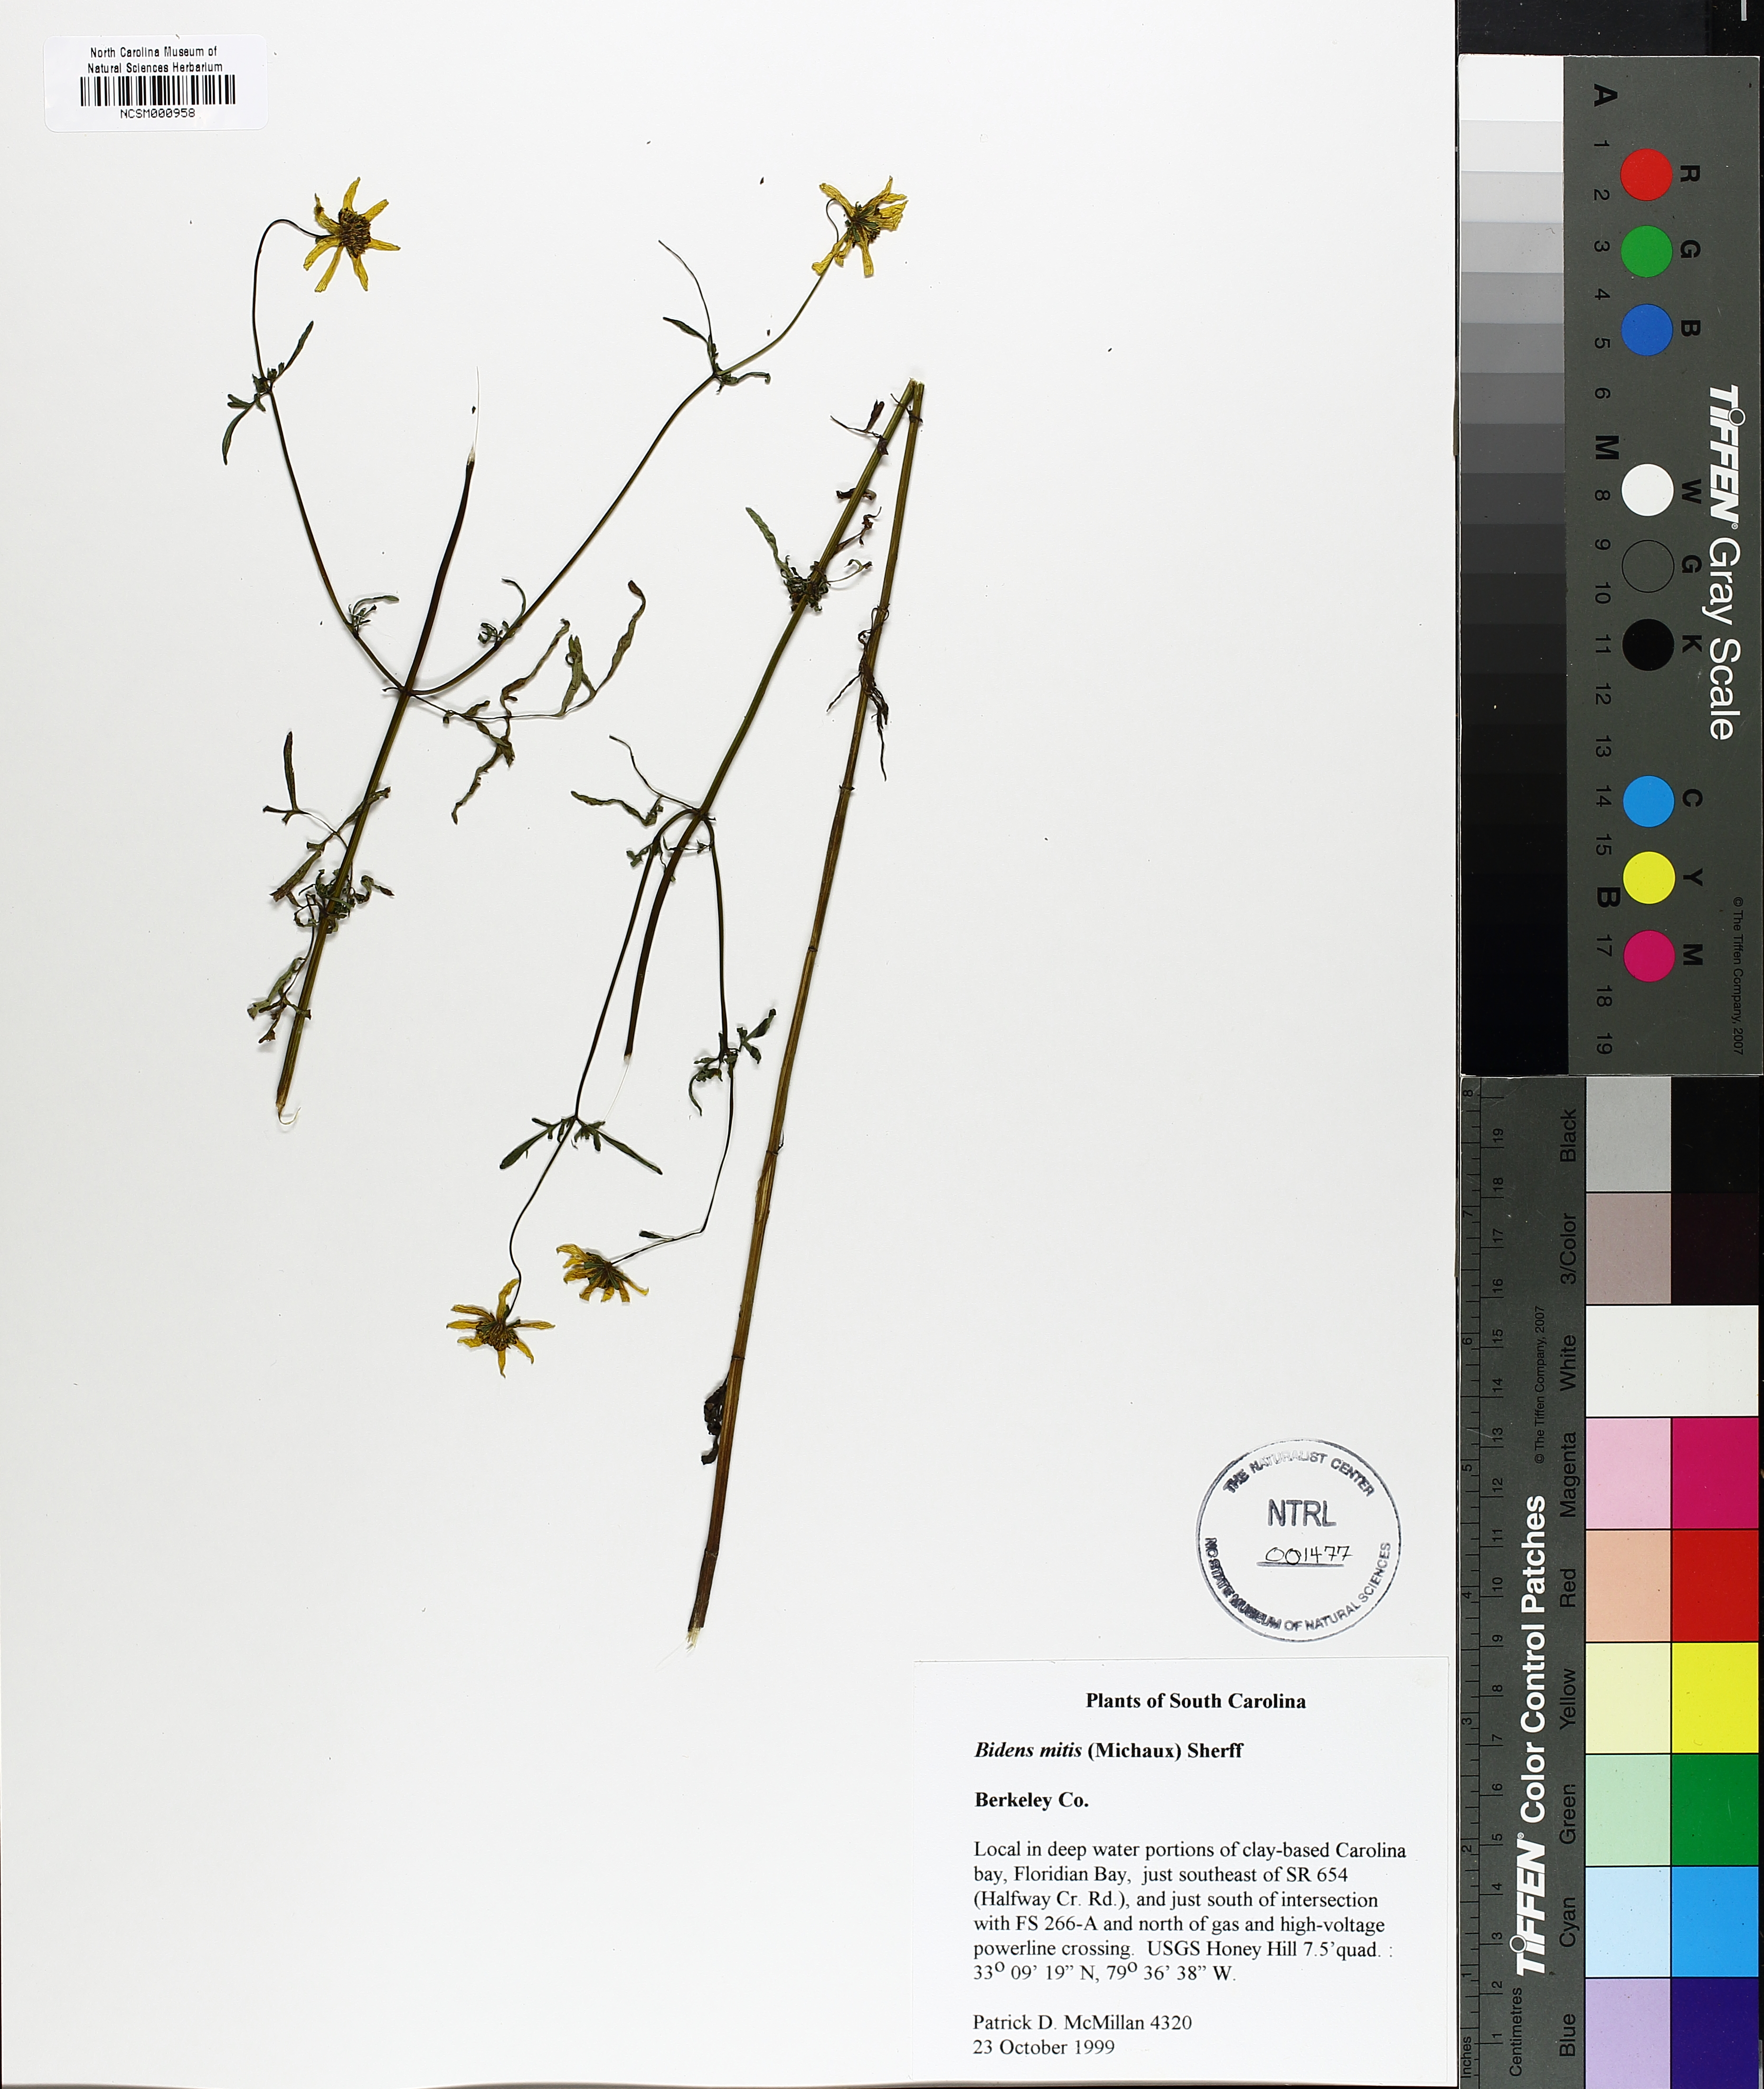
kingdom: Plantae
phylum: Tracheophyta
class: Magnoliopsida
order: Asterales
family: Asteraceae
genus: Bidens
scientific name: Bidens mitis
